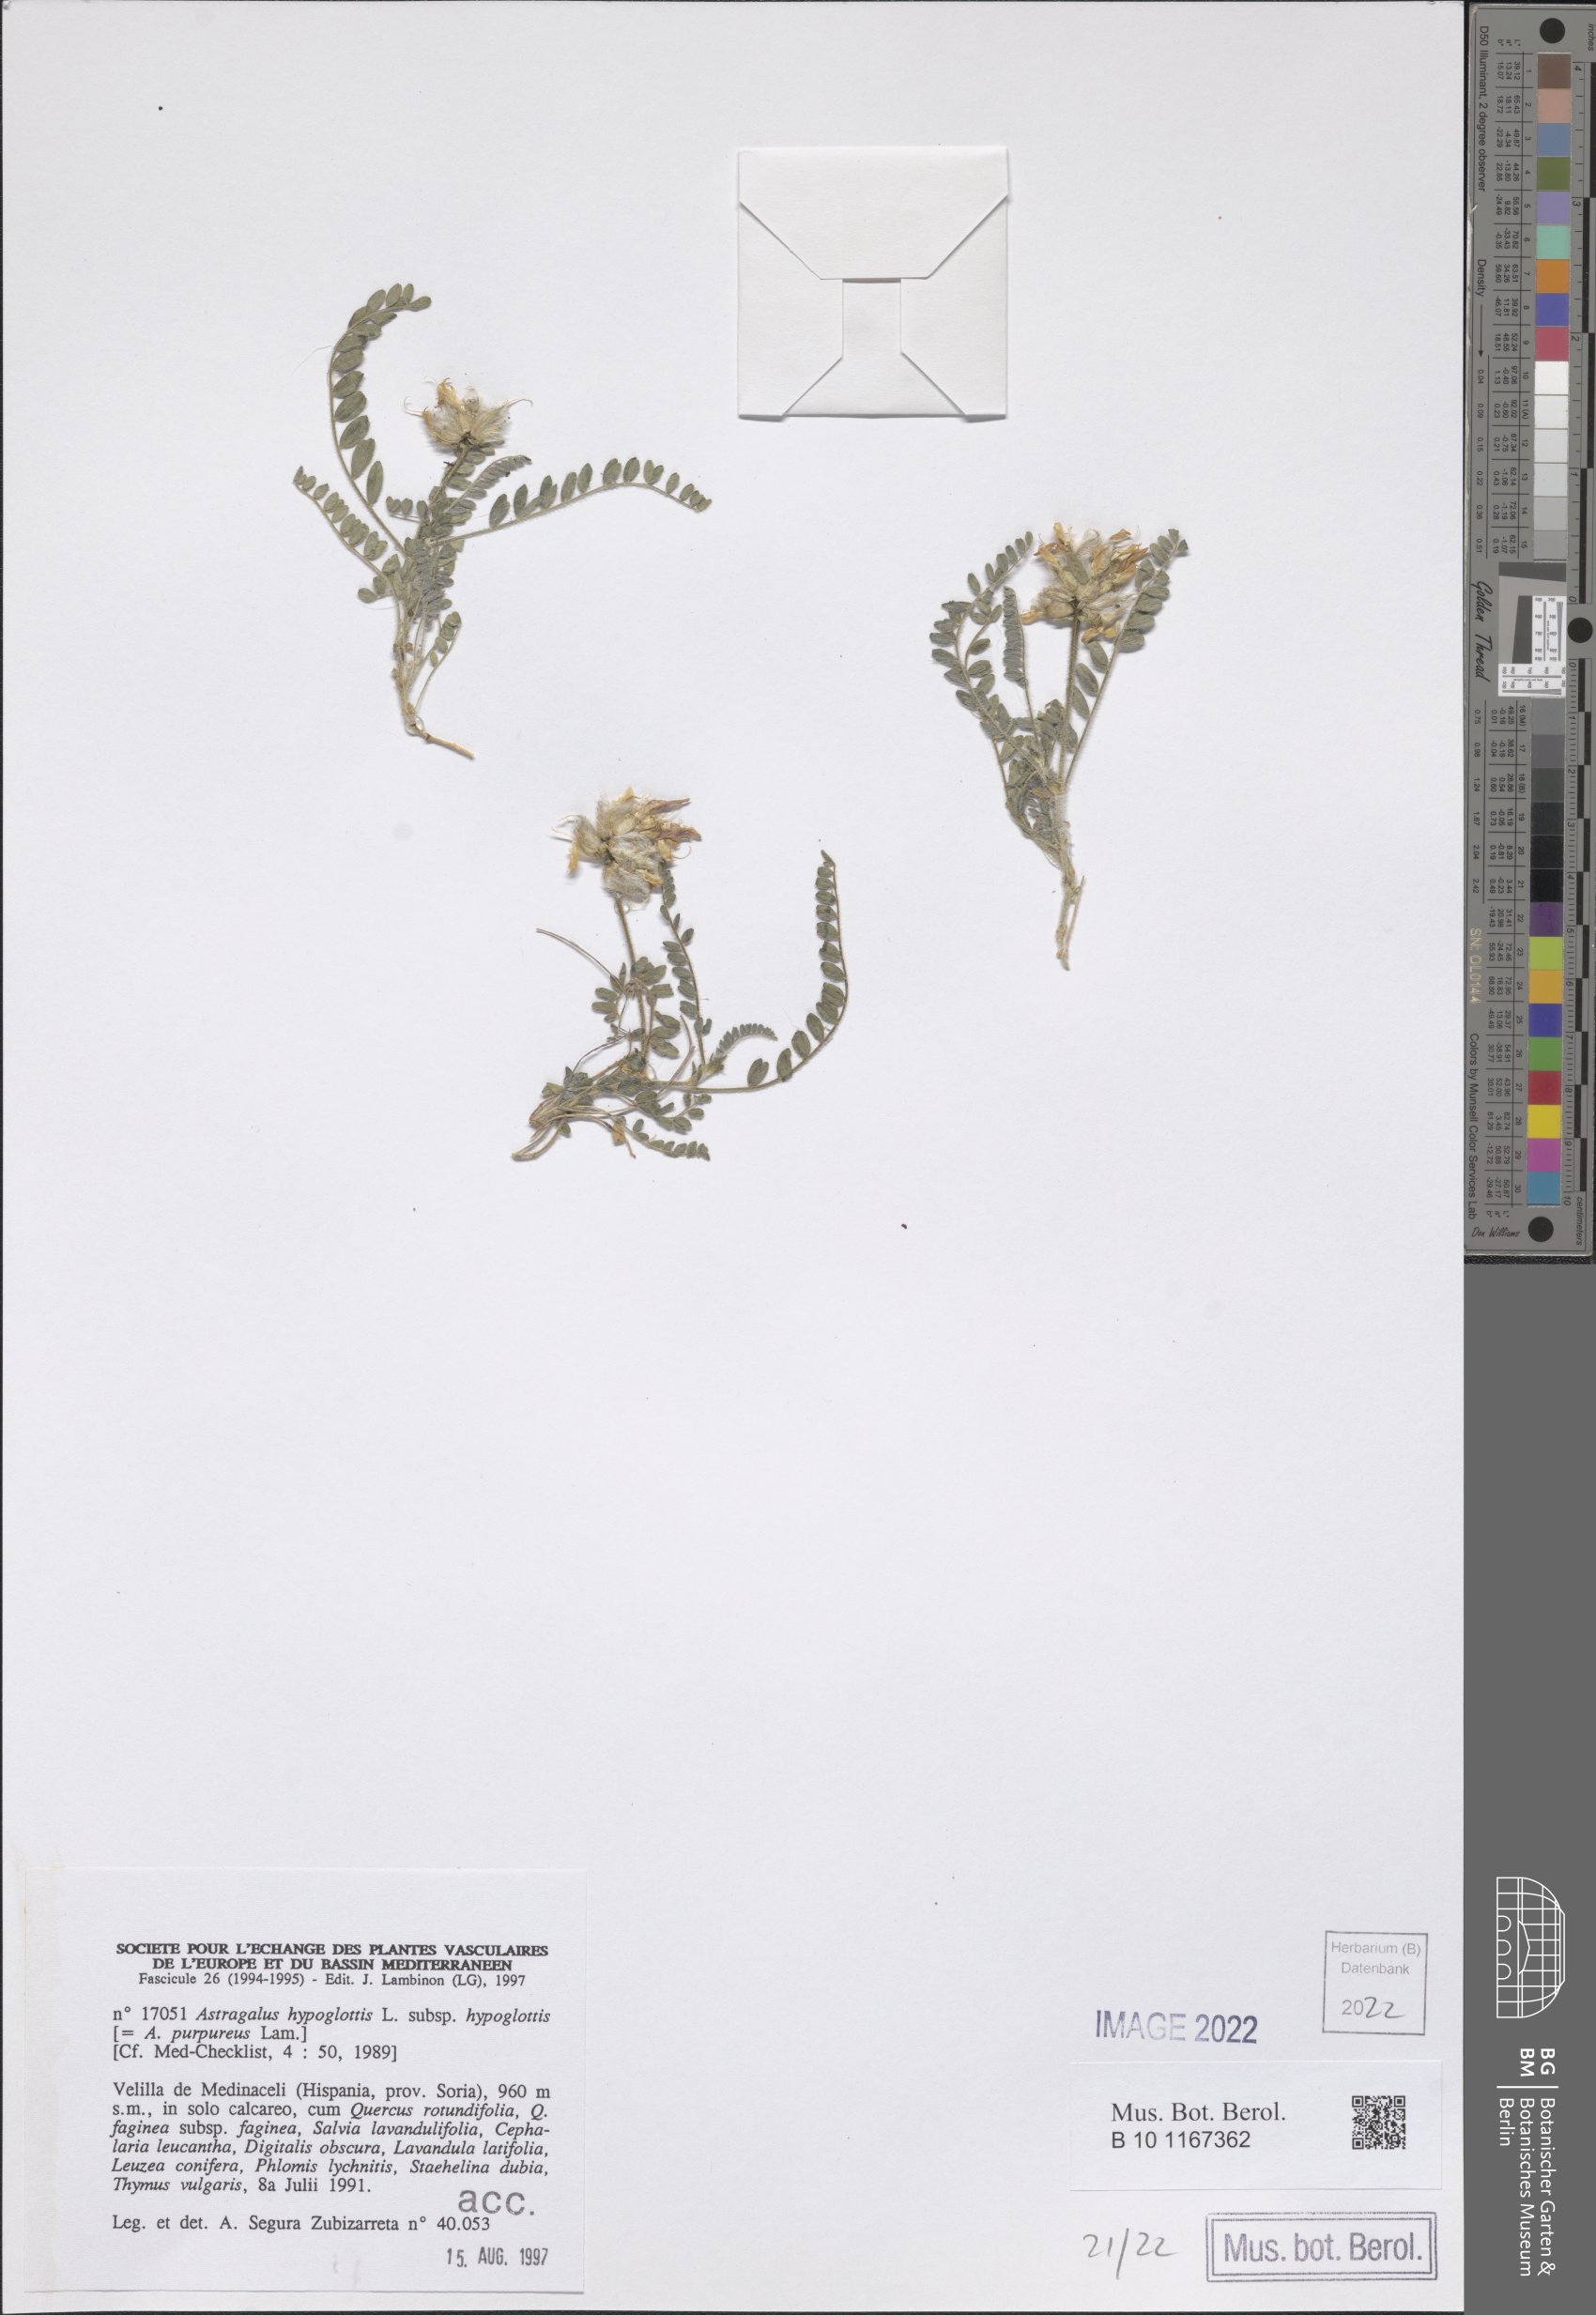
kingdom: Plantae
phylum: Tracheophyta
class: Magnoliopsida
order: Fabales
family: Fabaceae
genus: Astragalus
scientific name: Astragalus hypoglottis
